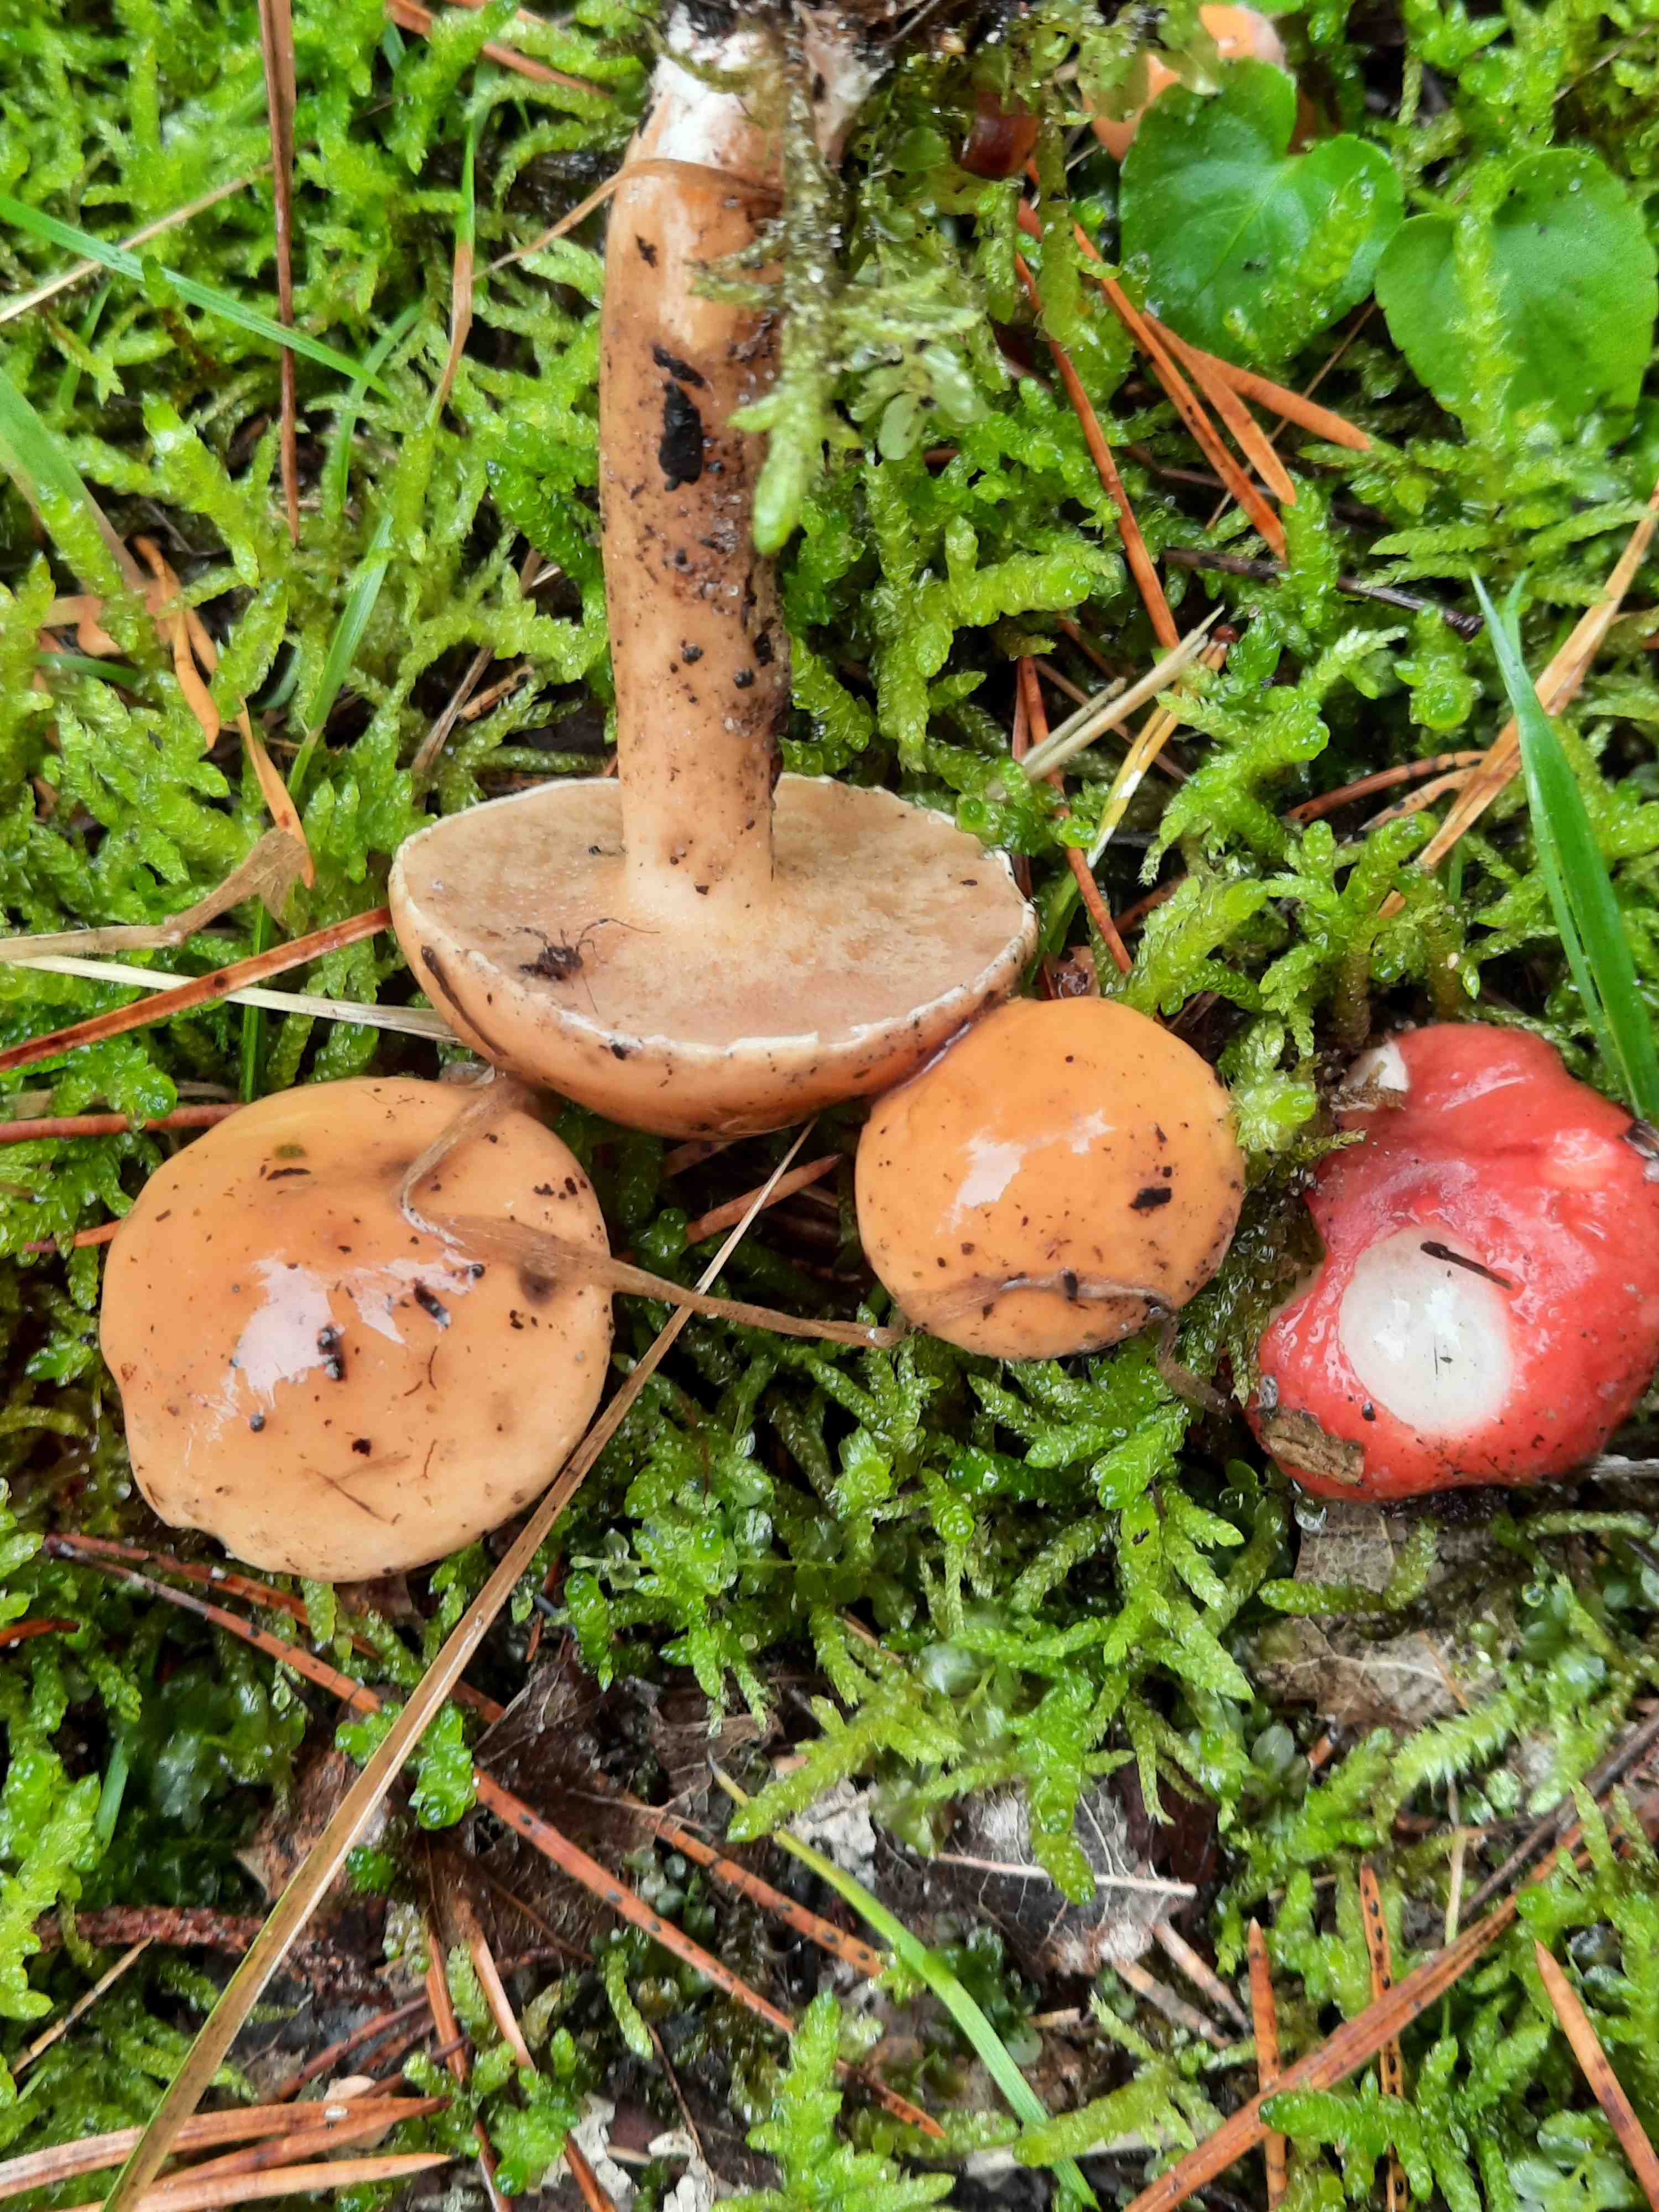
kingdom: Fungi
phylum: Basidiomycota
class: Agaricomycetes
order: Boletales
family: Suillaceae
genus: Suillus
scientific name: Suillus bovinus
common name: grovporet slimrørhat
